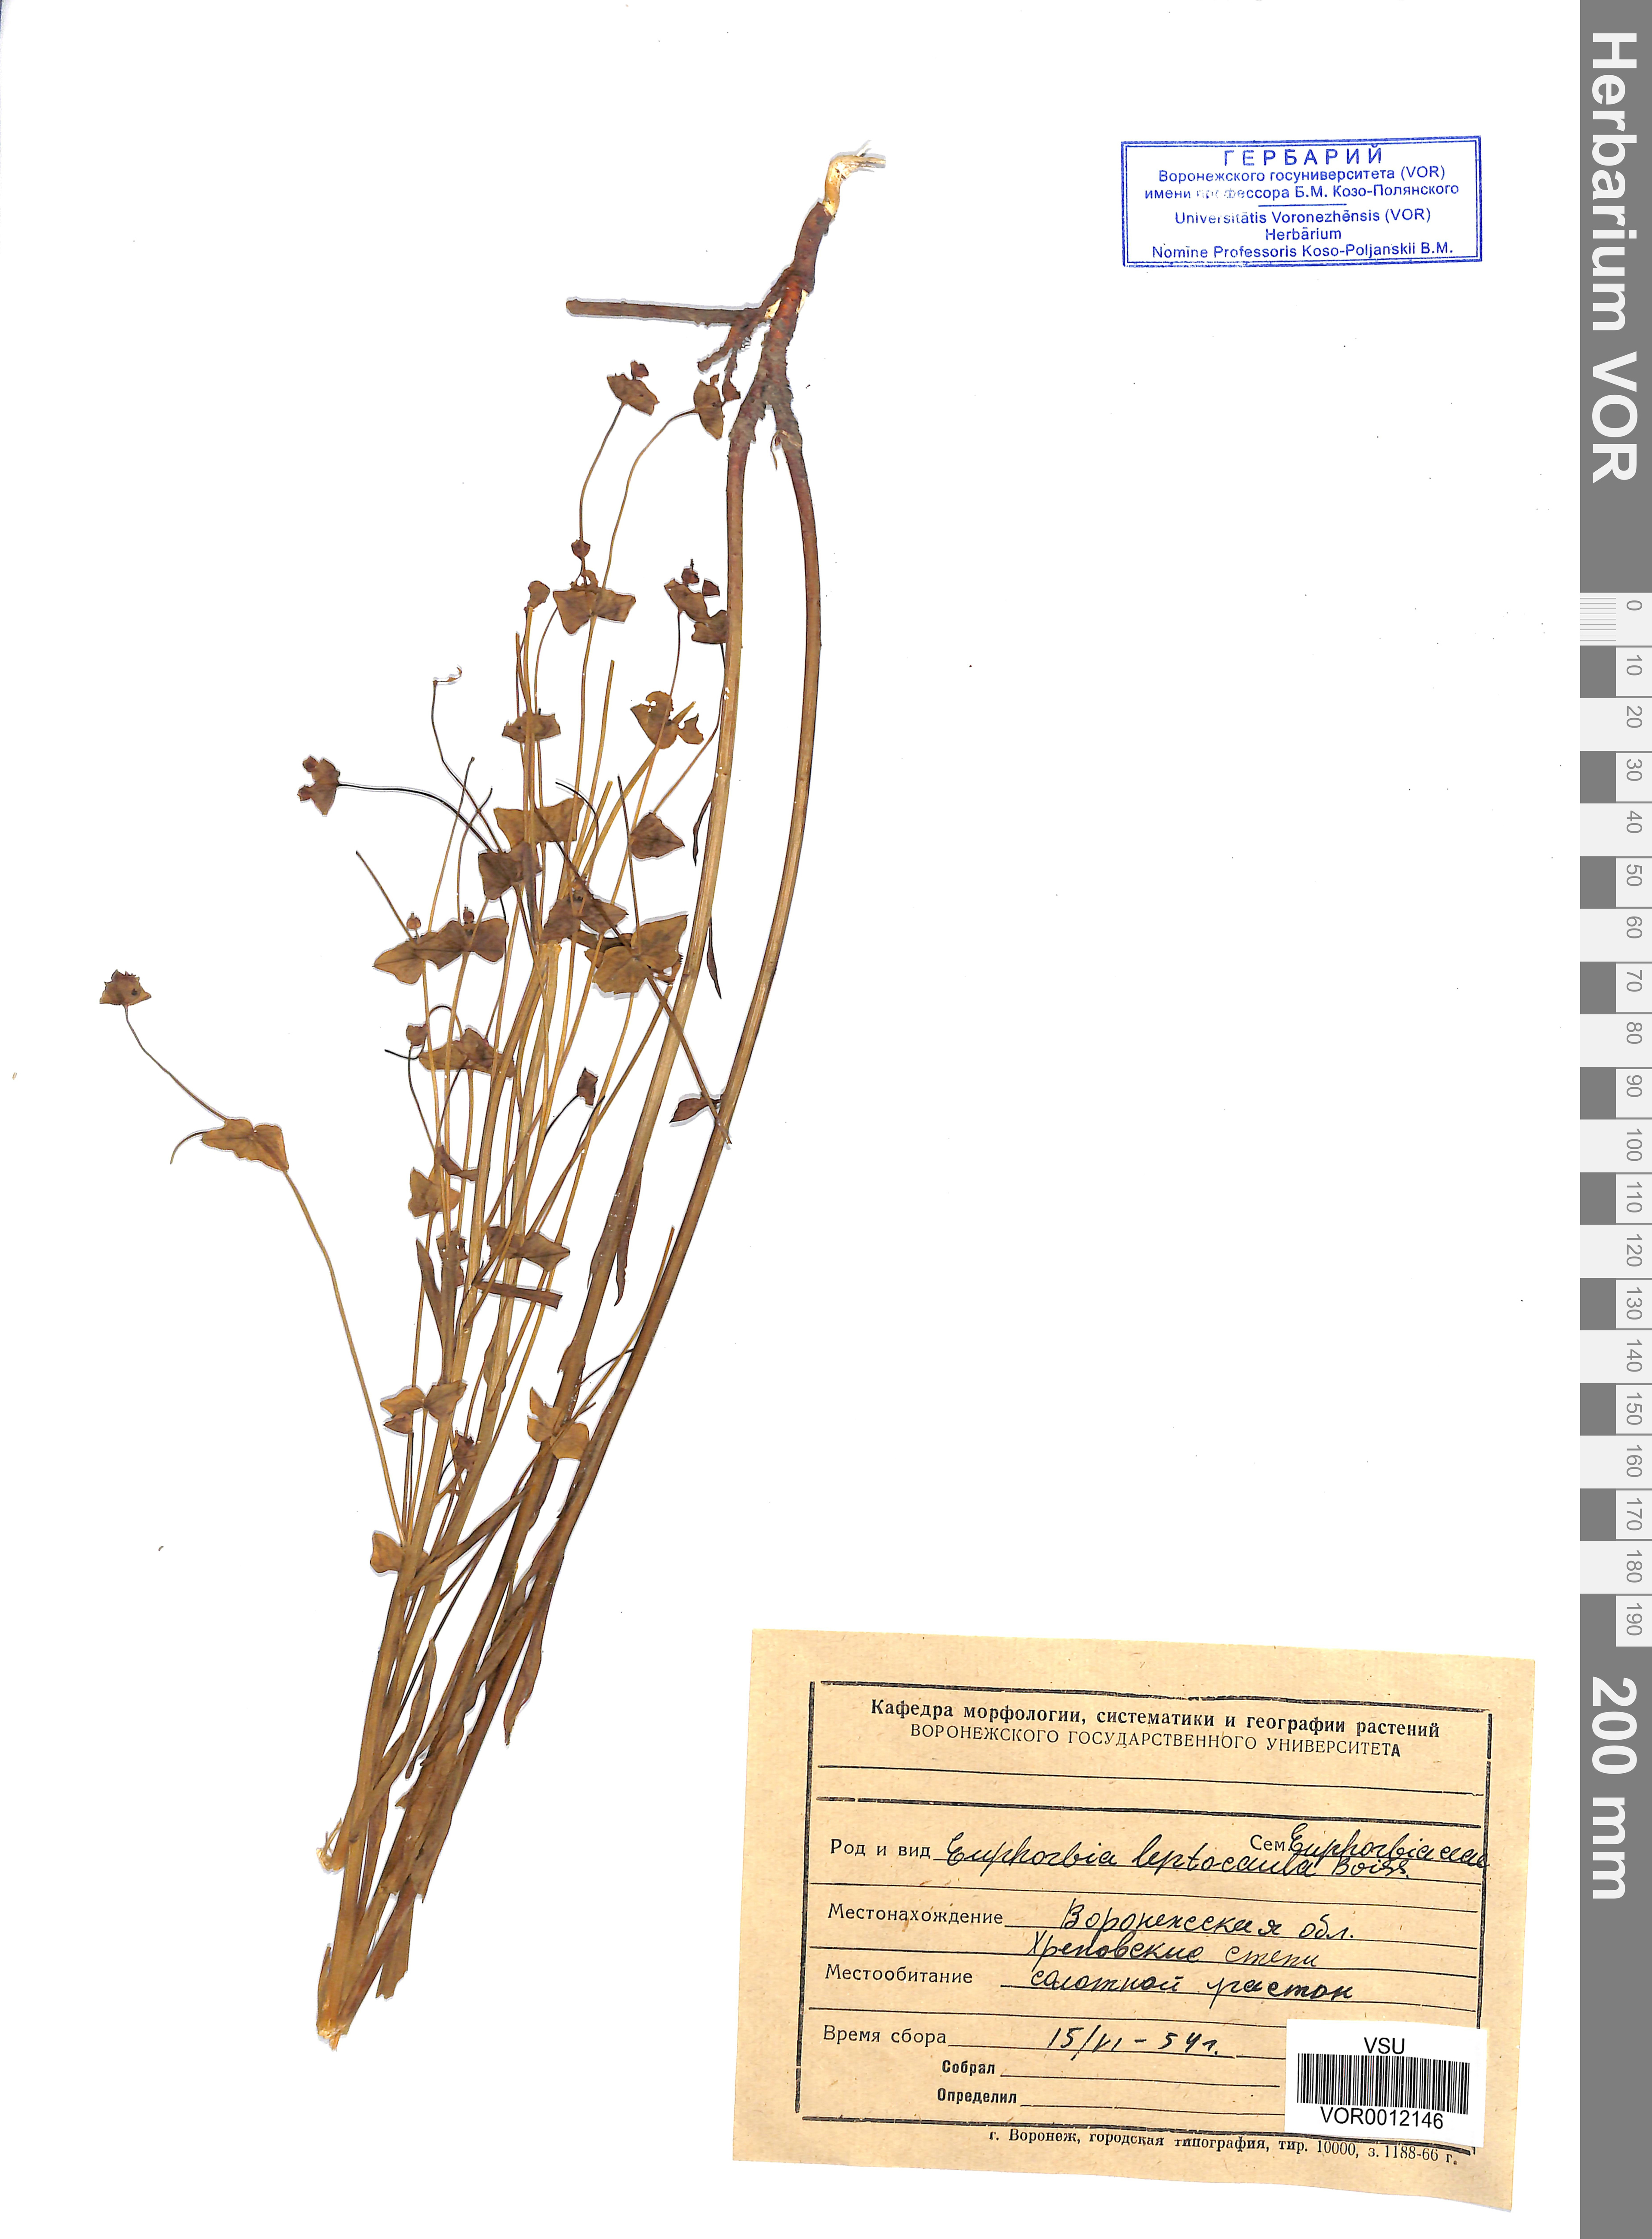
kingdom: Plantae
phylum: Tracheophyta
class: Magnoliopsida
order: Malpighiales
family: Euphorbiaceae
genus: Euphorbia
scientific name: Euphorbia leptocaula
